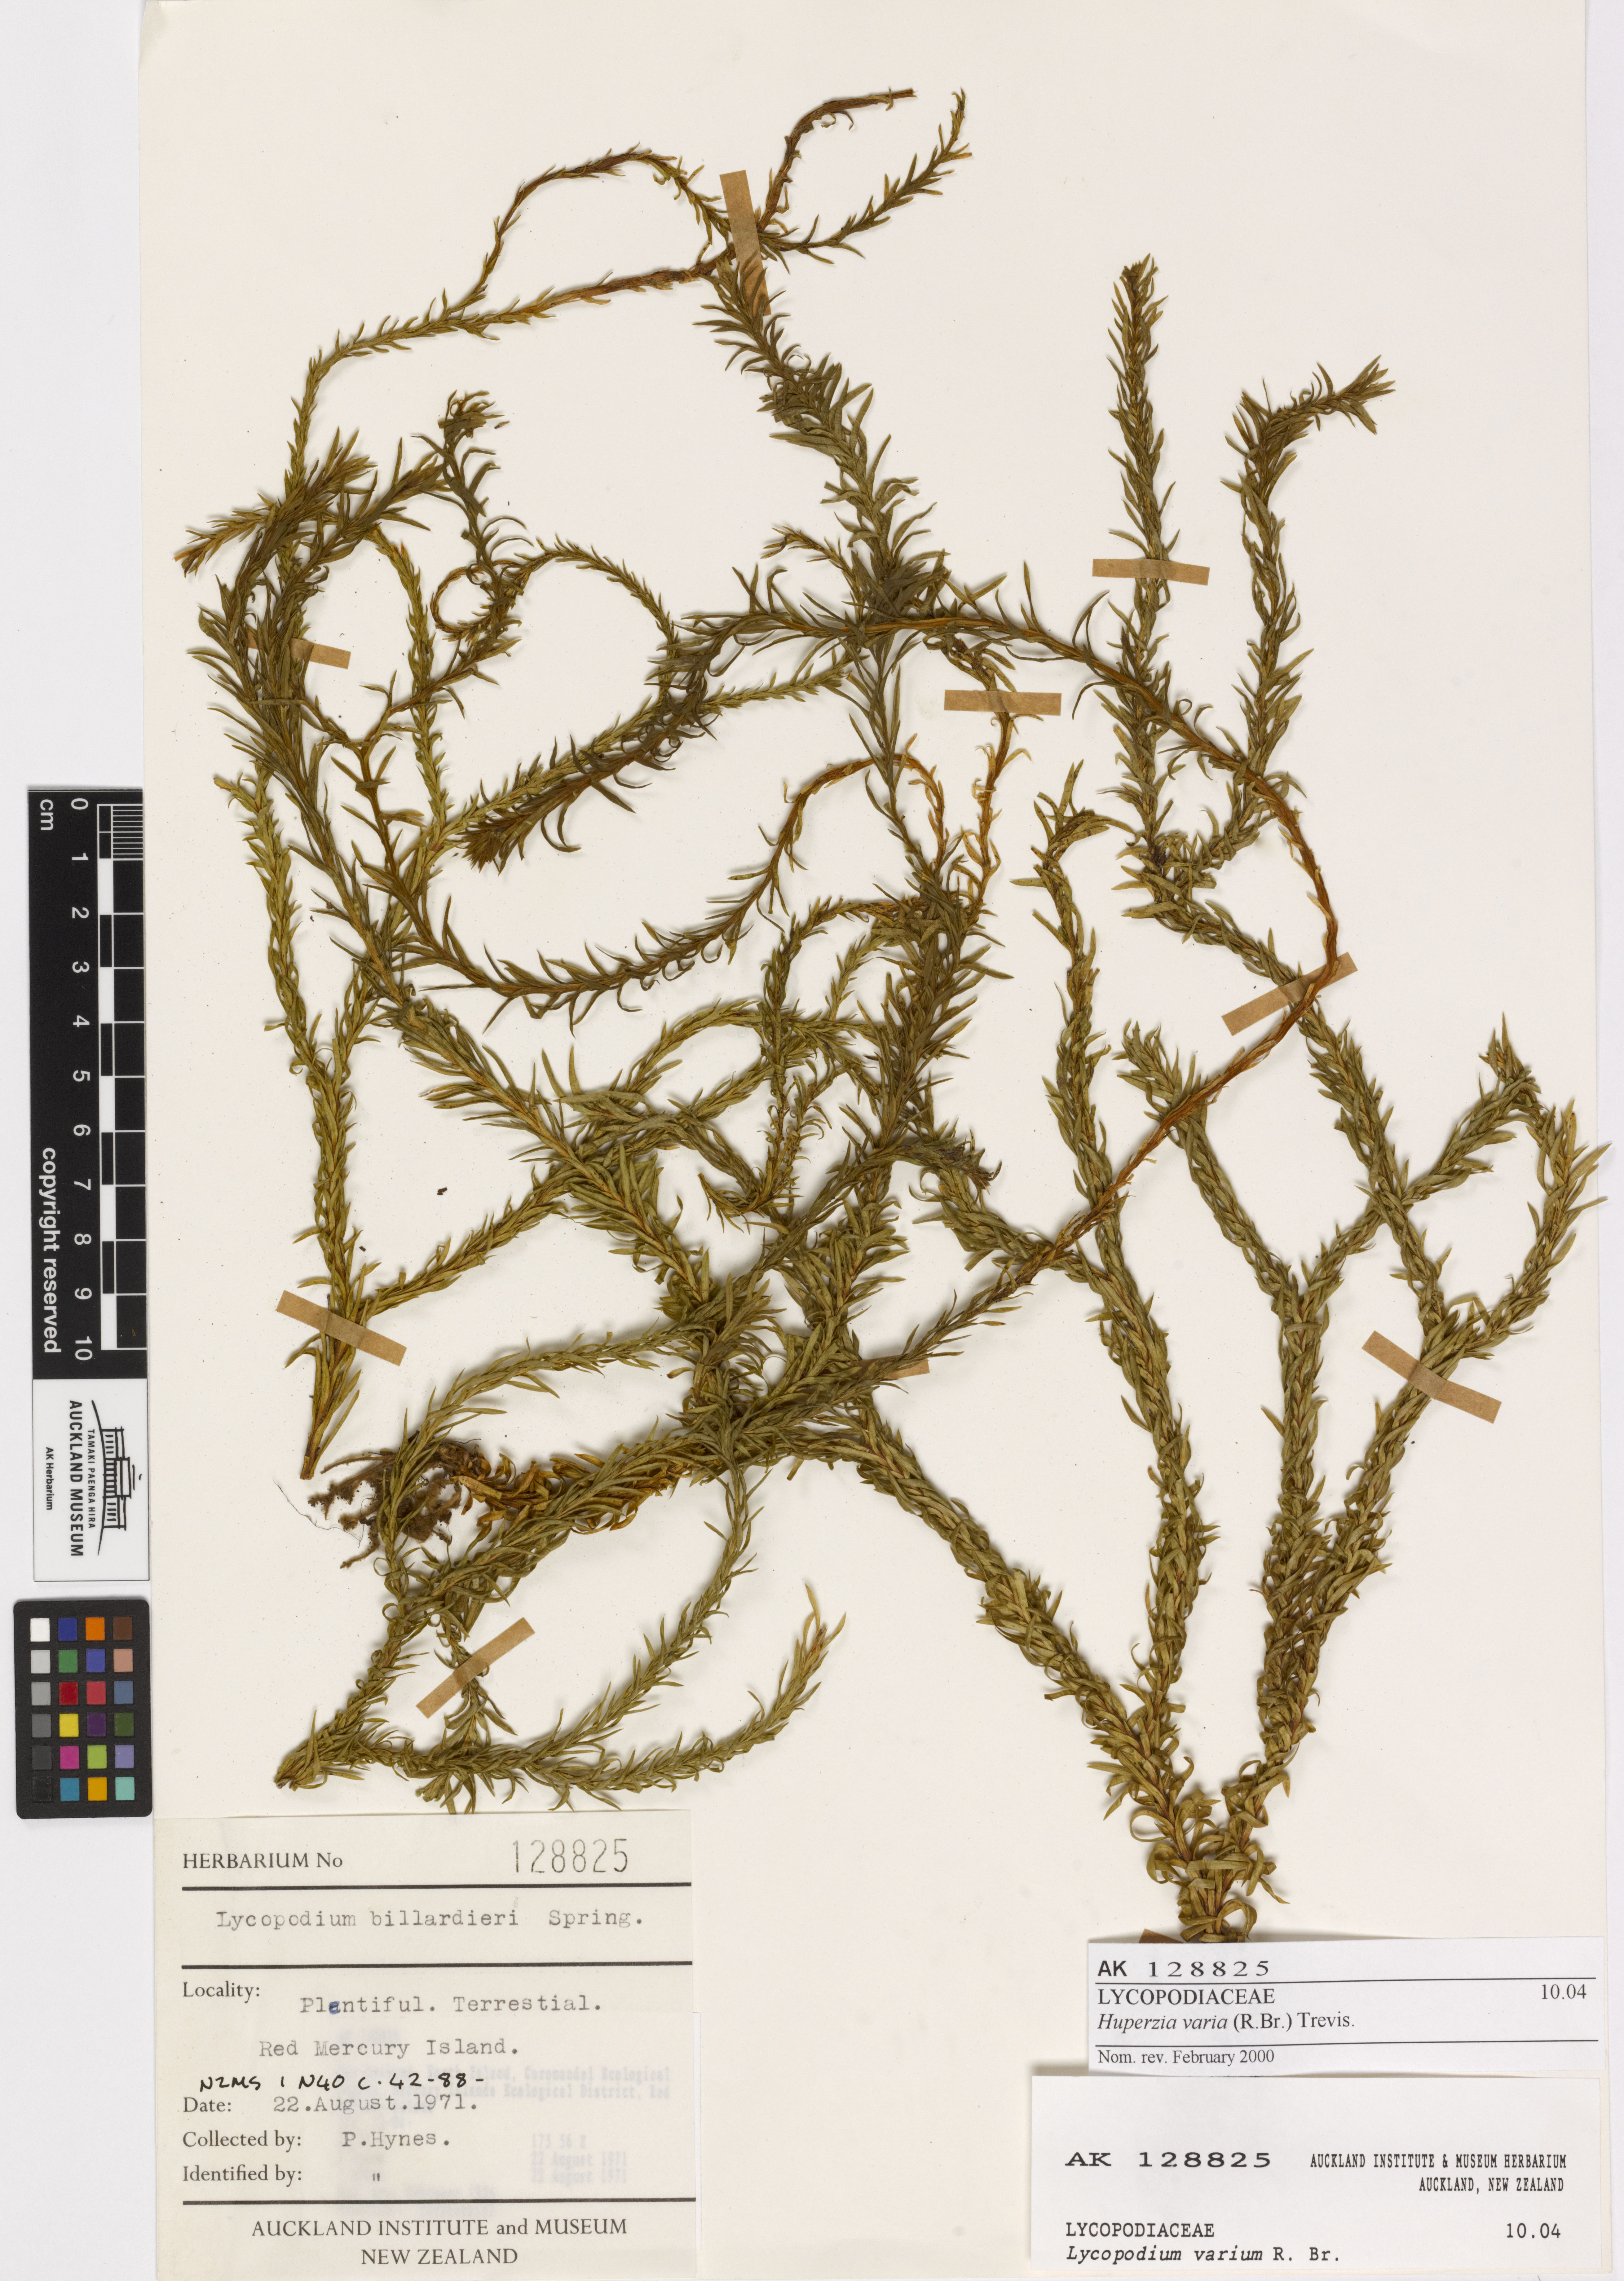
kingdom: Plantae
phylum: Tracheophyta
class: Lycopodiopsida
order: Lycopodiales
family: Lycopodiaceae
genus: Phlegmariurus
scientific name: Phlegmariurus
